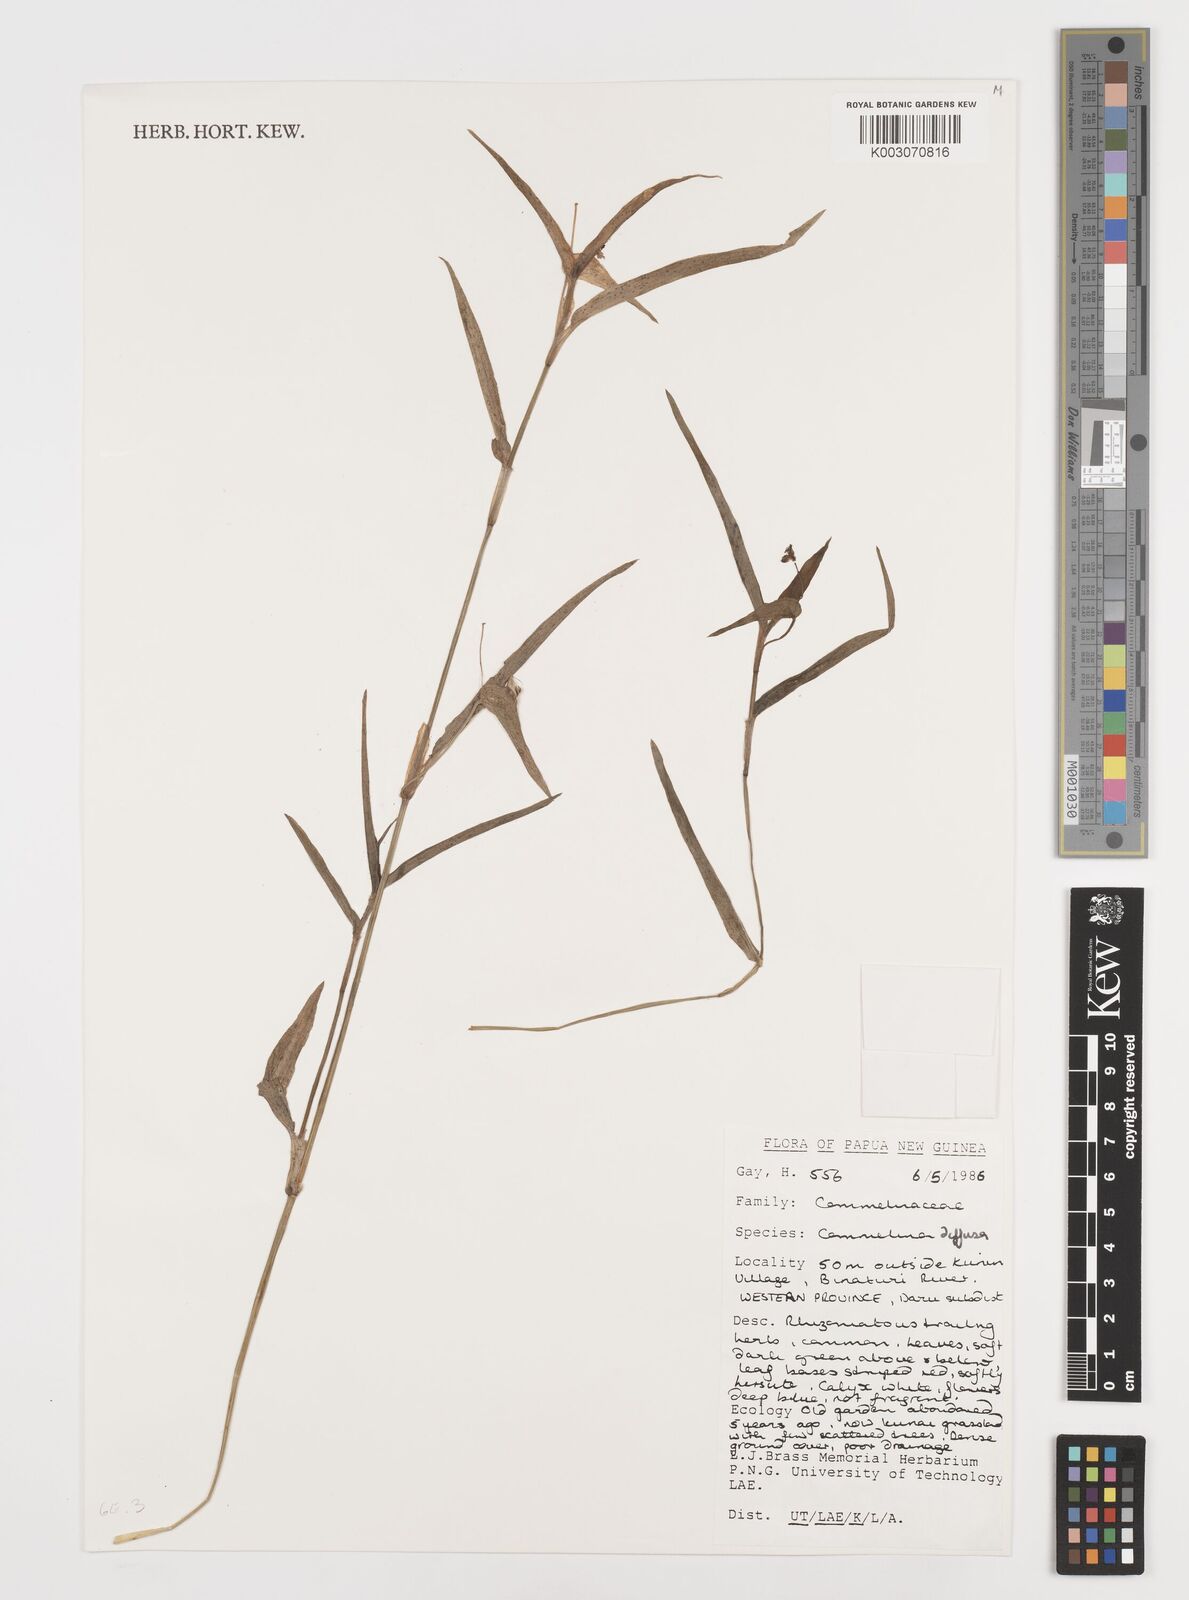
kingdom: Plantae
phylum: Tracheophyta
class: Liliopsida
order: Commelinales
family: Commelinaceae
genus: Murdannia
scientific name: Murdannia nudiflora
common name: Nakedstem dewflower
